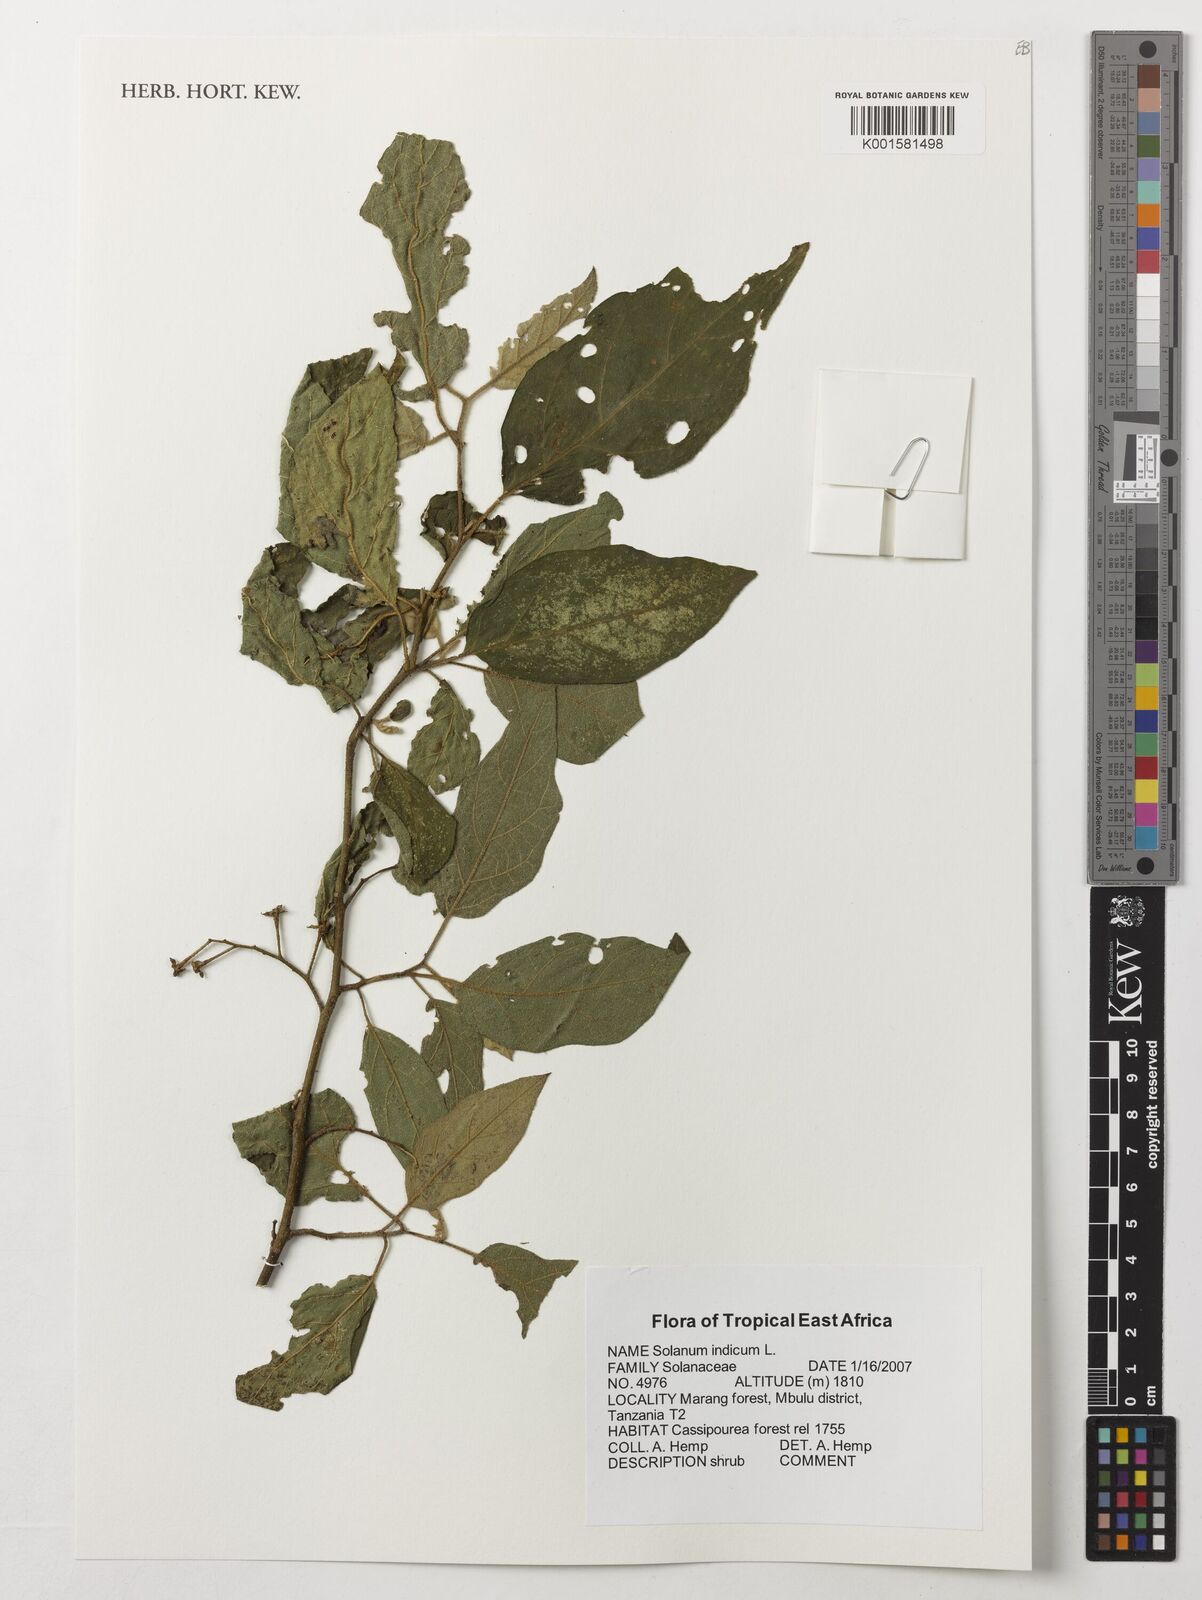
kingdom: Plantae
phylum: Tracheophyta
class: Magnoliopsida
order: Solanales
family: Solanaceae
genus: Solanum
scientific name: Solanum violaceum
